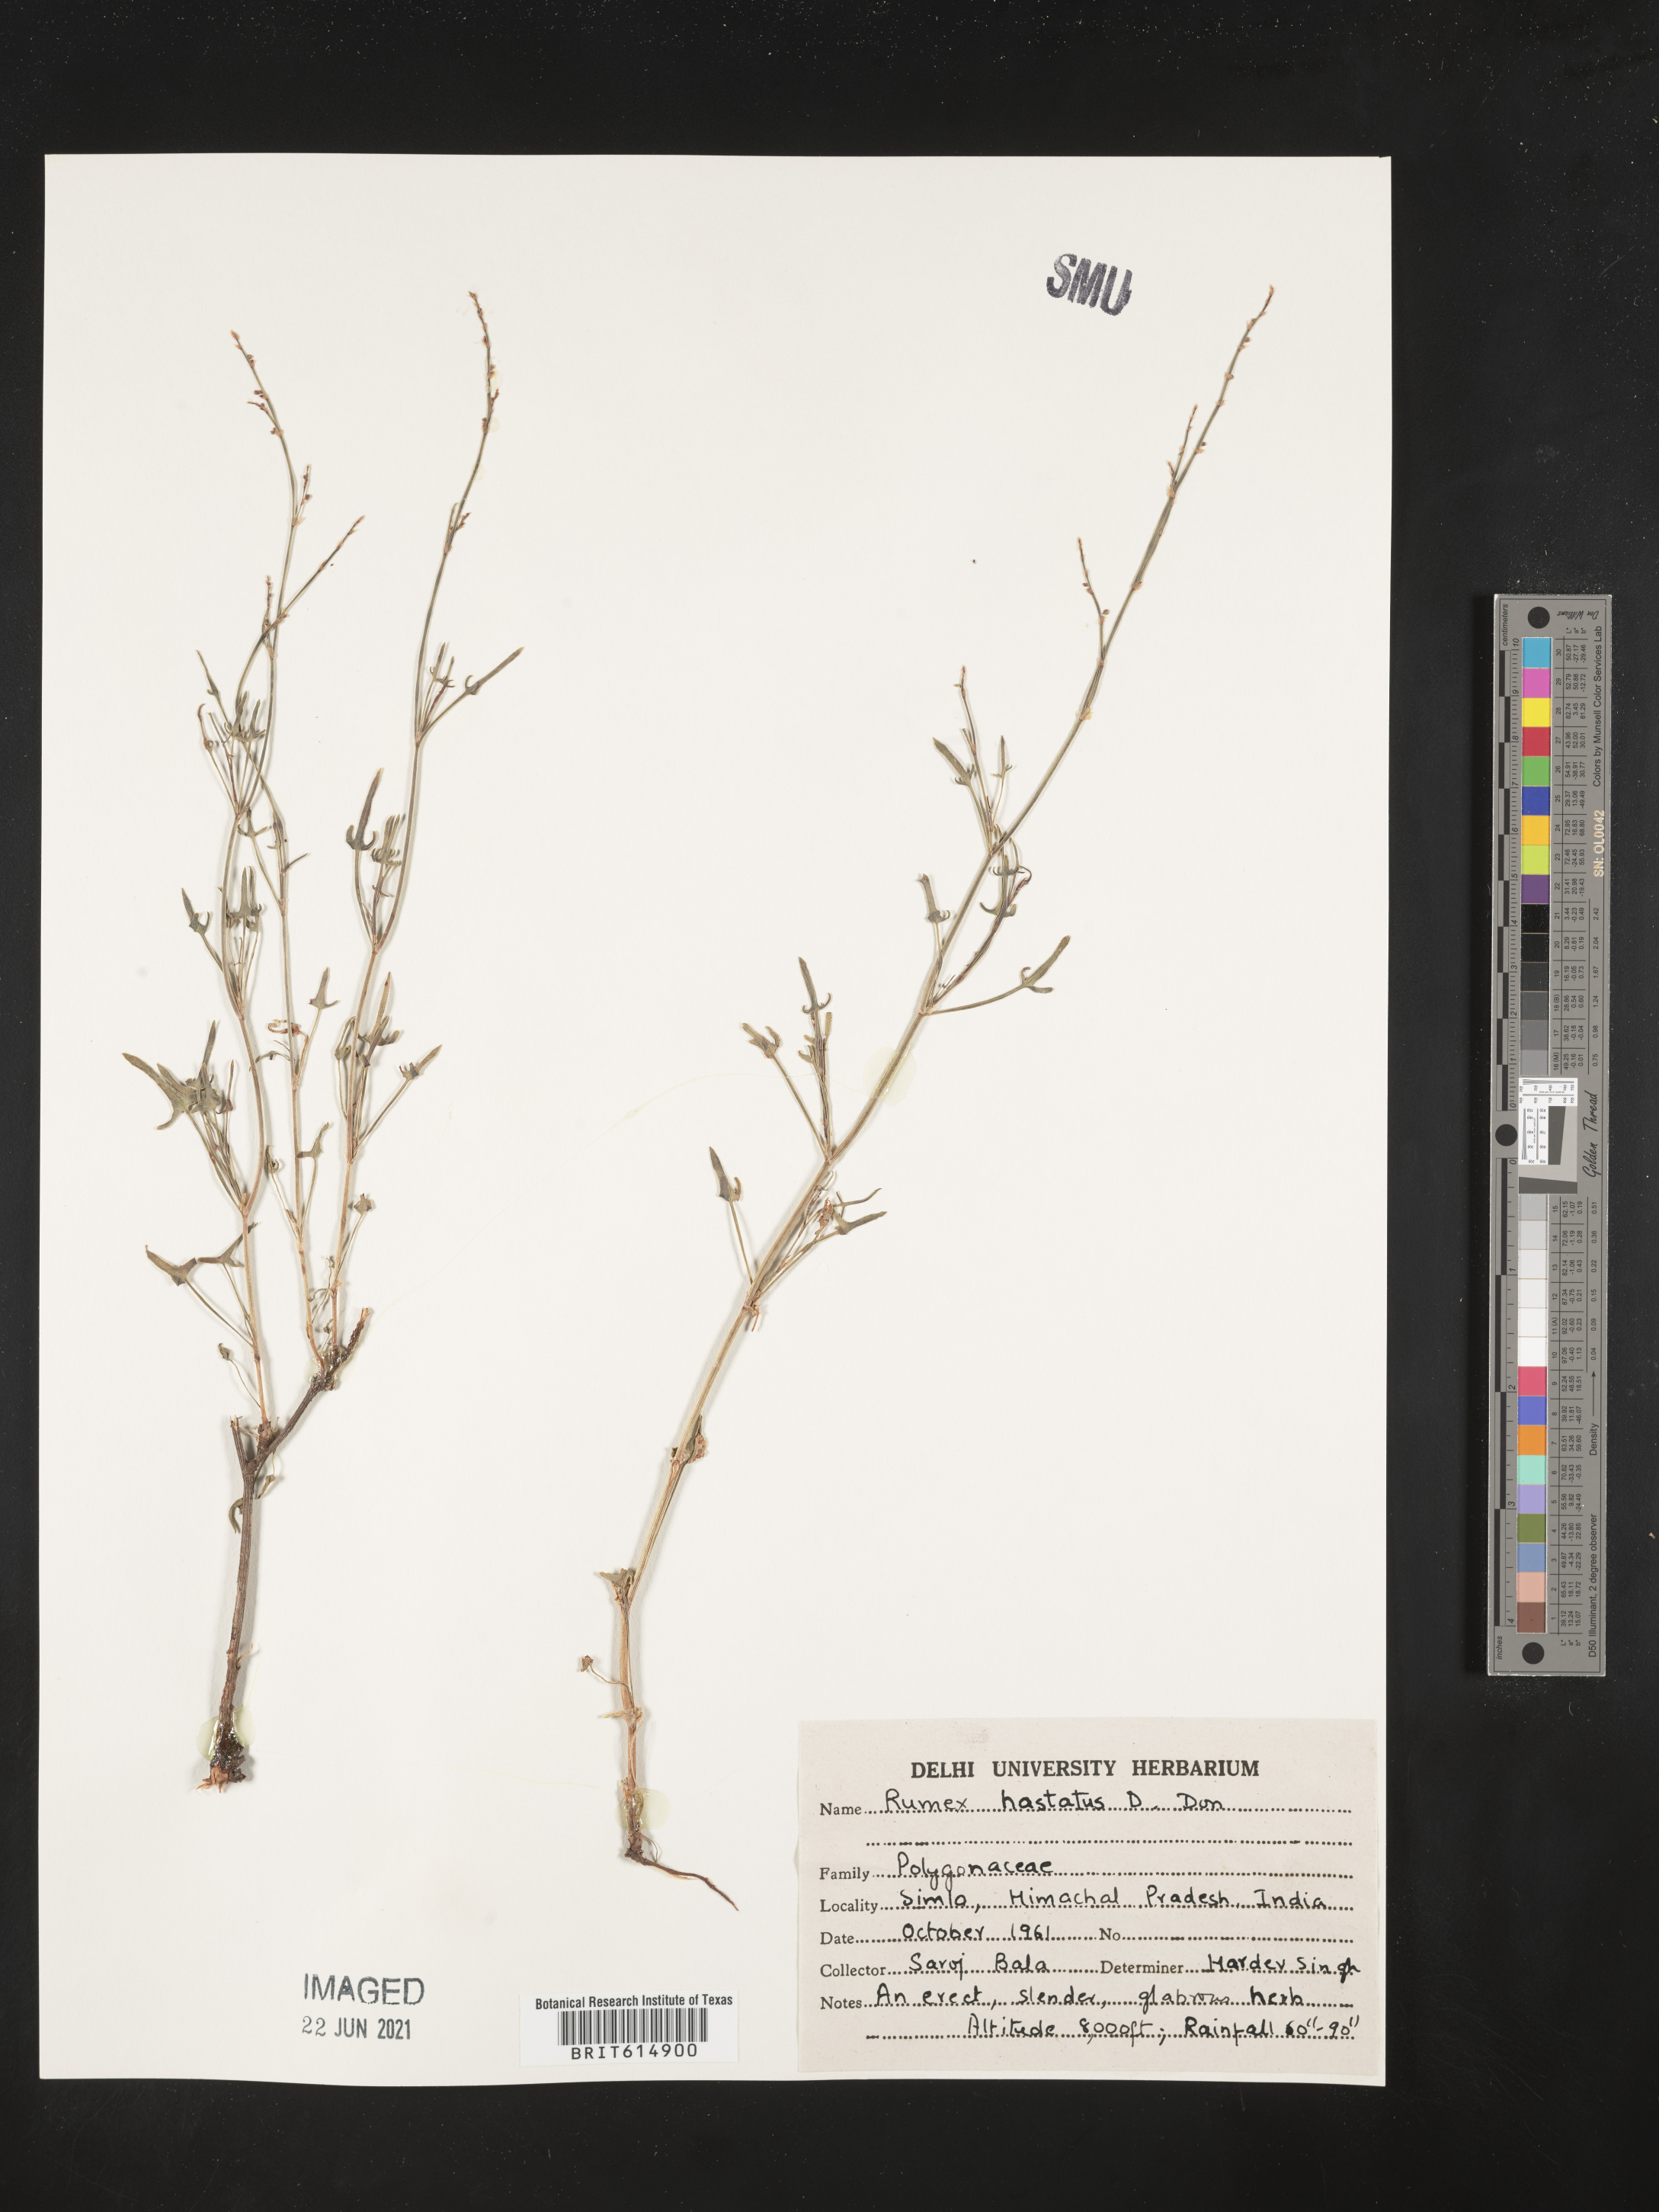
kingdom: Plantae
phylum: Tracheophyta
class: Magnoliopsida
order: Caryophyllales
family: Polygonaceae
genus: Rumex
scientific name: Rumex hastatus
